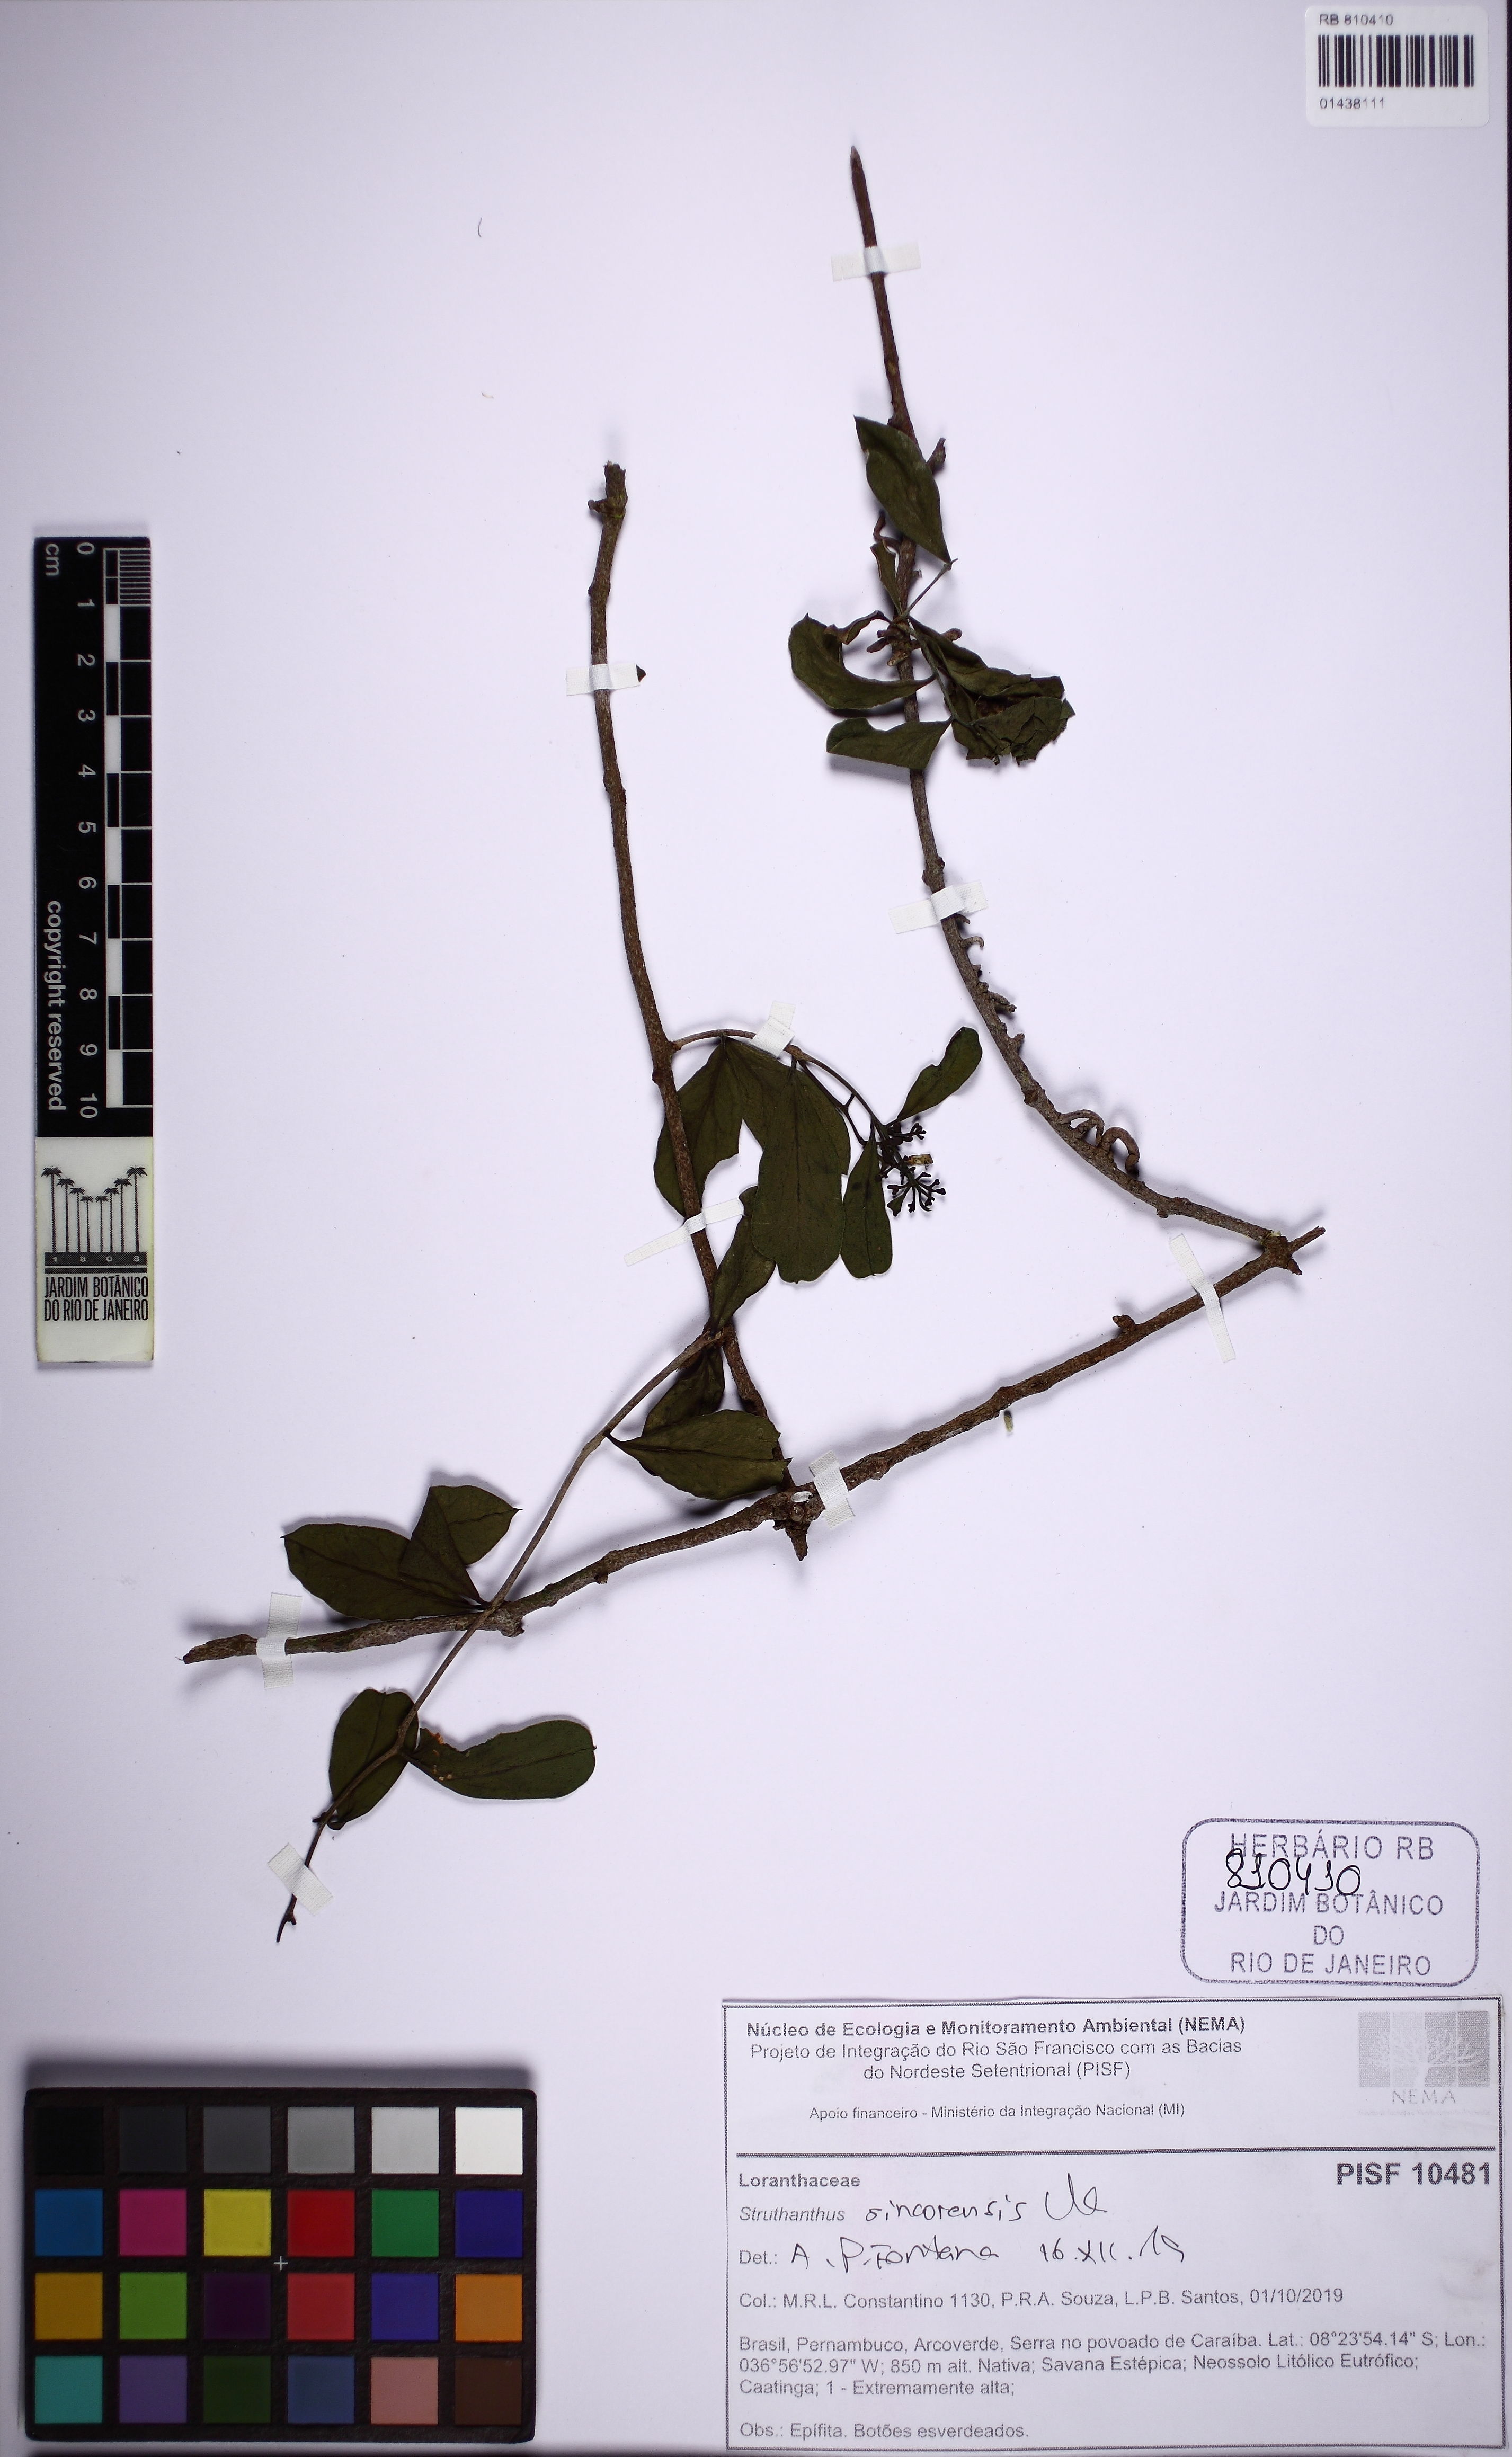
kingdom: Plantae
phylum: Tracheophyta
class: Magnoliopsida
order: Santalales
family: Loranthaceae
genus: Struthanthus
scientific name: Struthanthus sincorensis
